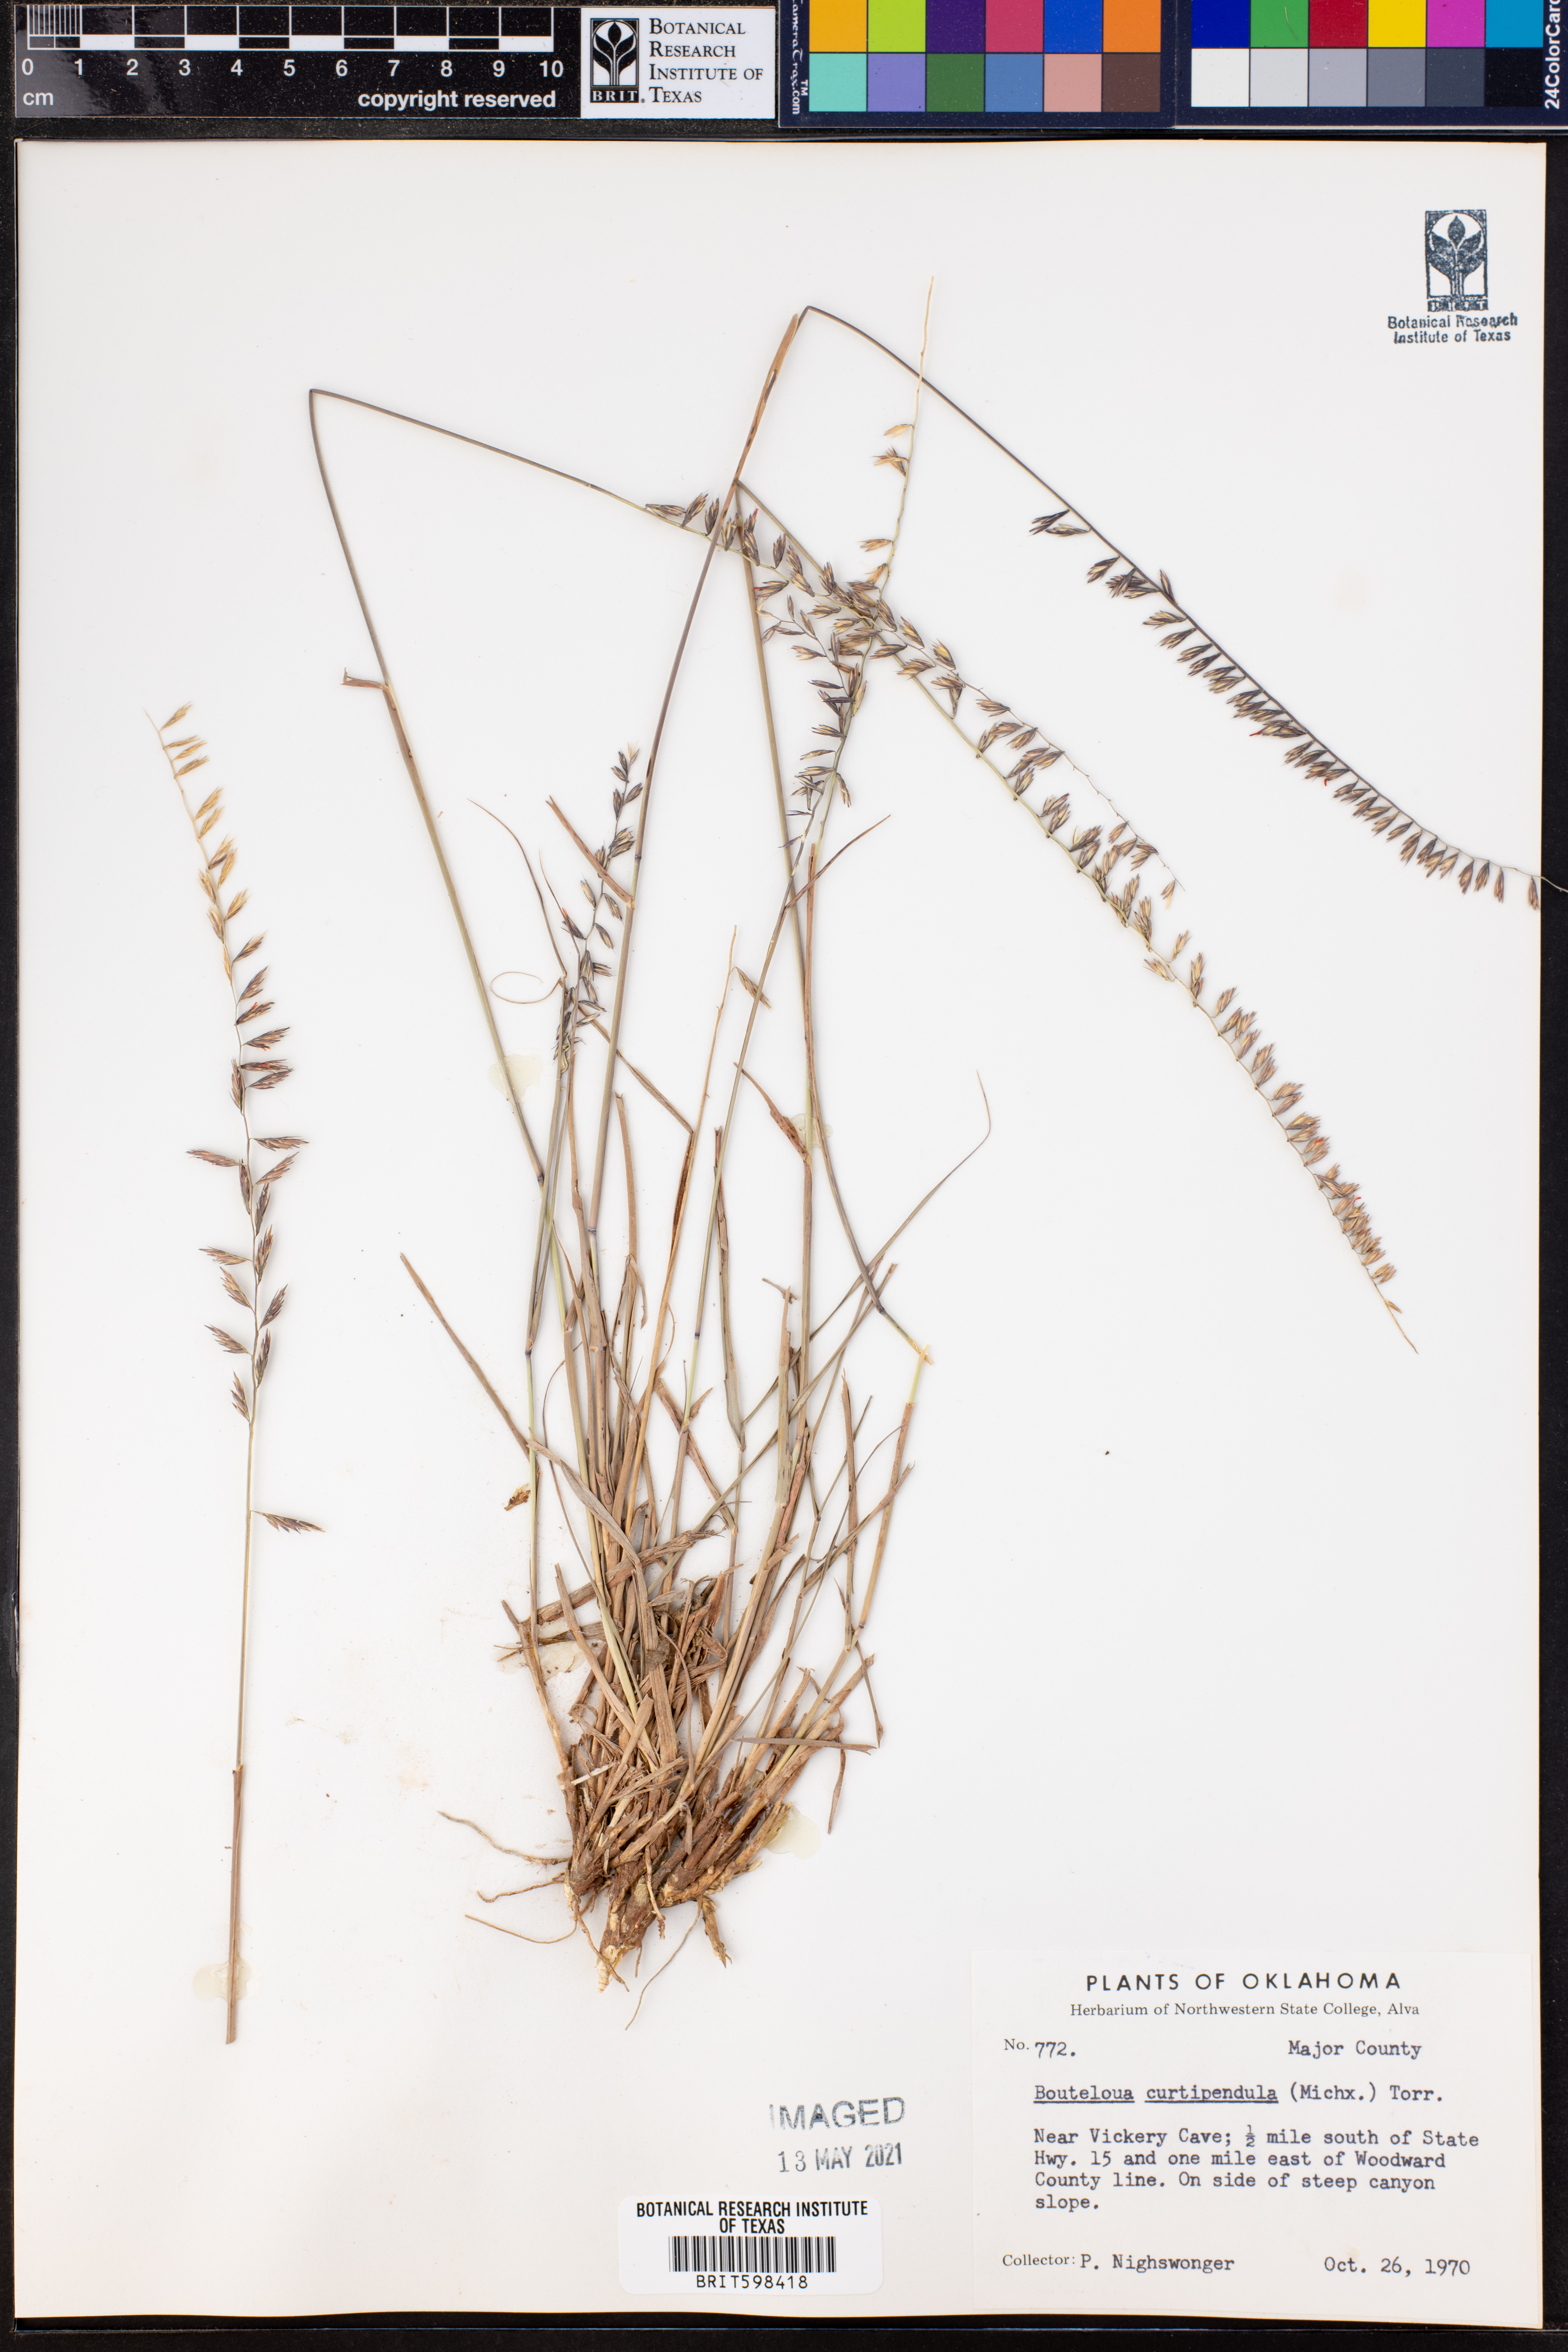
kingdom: Plantae
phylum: Tracheophyta
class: Liliopsida
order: Poales
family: Poaceae
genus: Bouteloua
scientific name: Bouteloua curtipendula
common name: Side-oats grama
